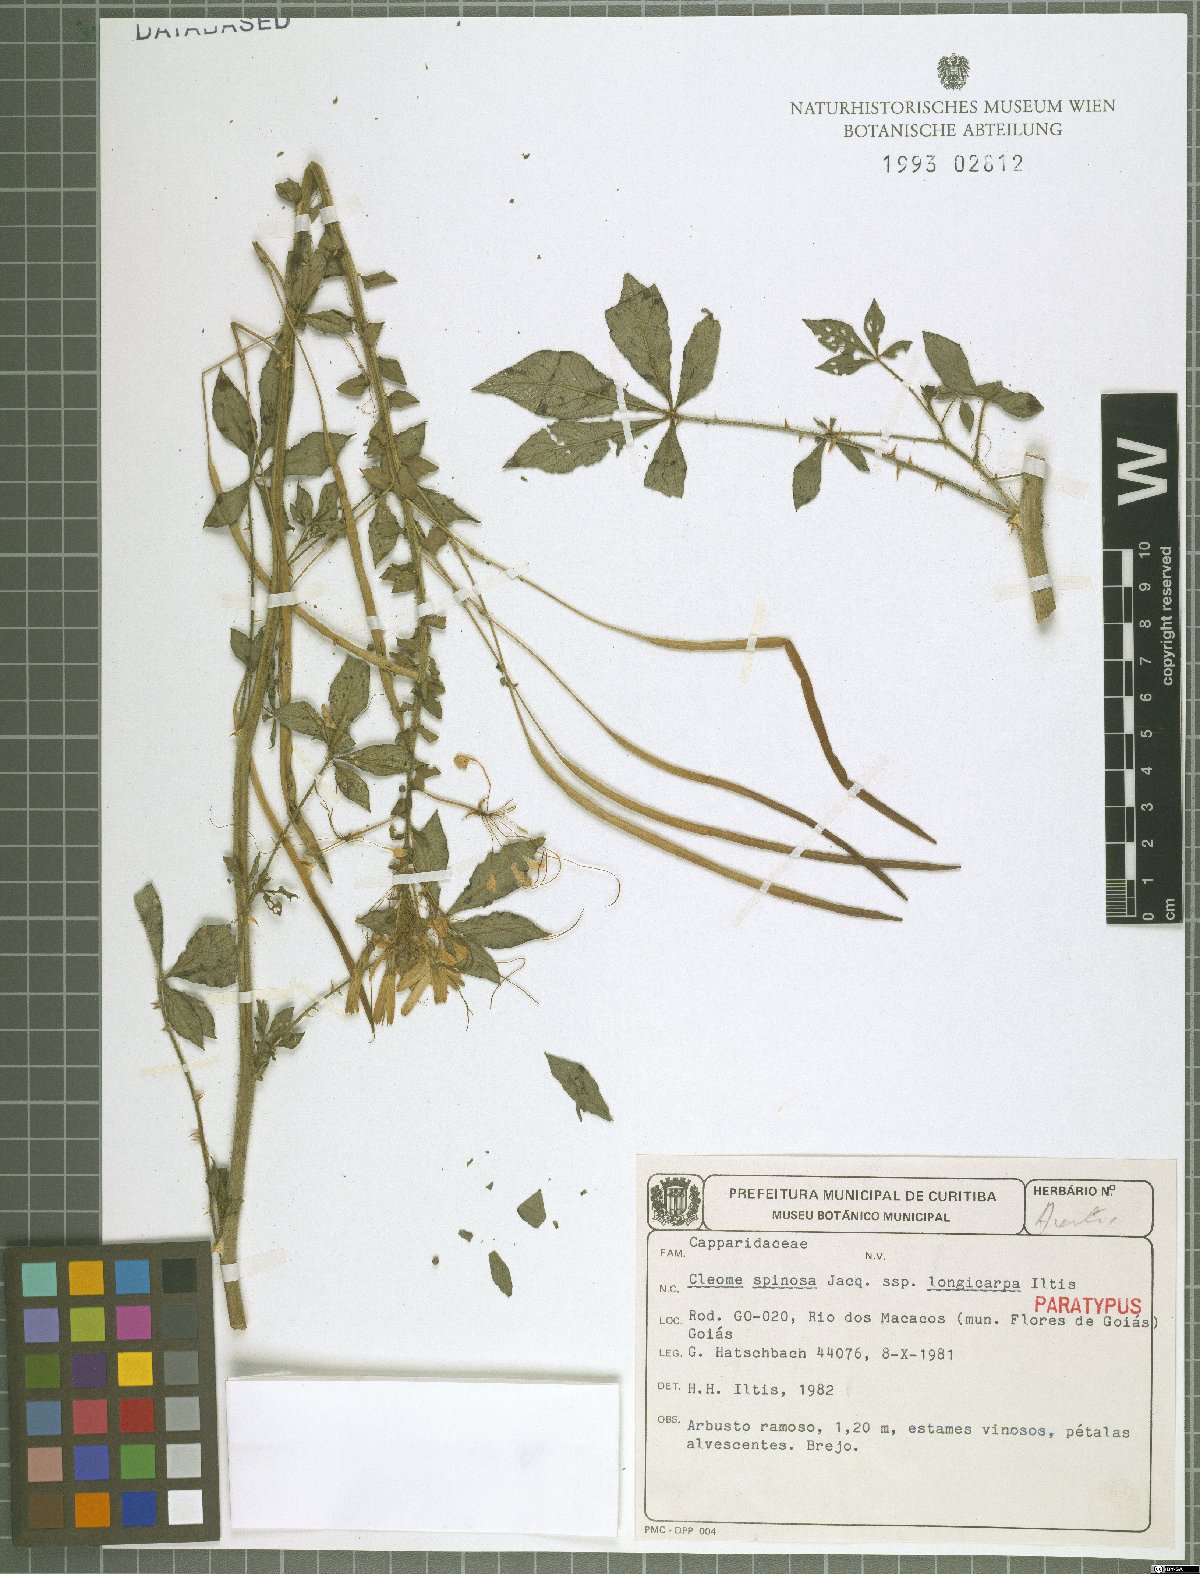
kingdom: Plantae
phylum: Tracheophyta
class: Magnoliopsida
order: Brassicales
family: Cleomaceae
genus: Tarenaya
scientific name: Tarenaya
